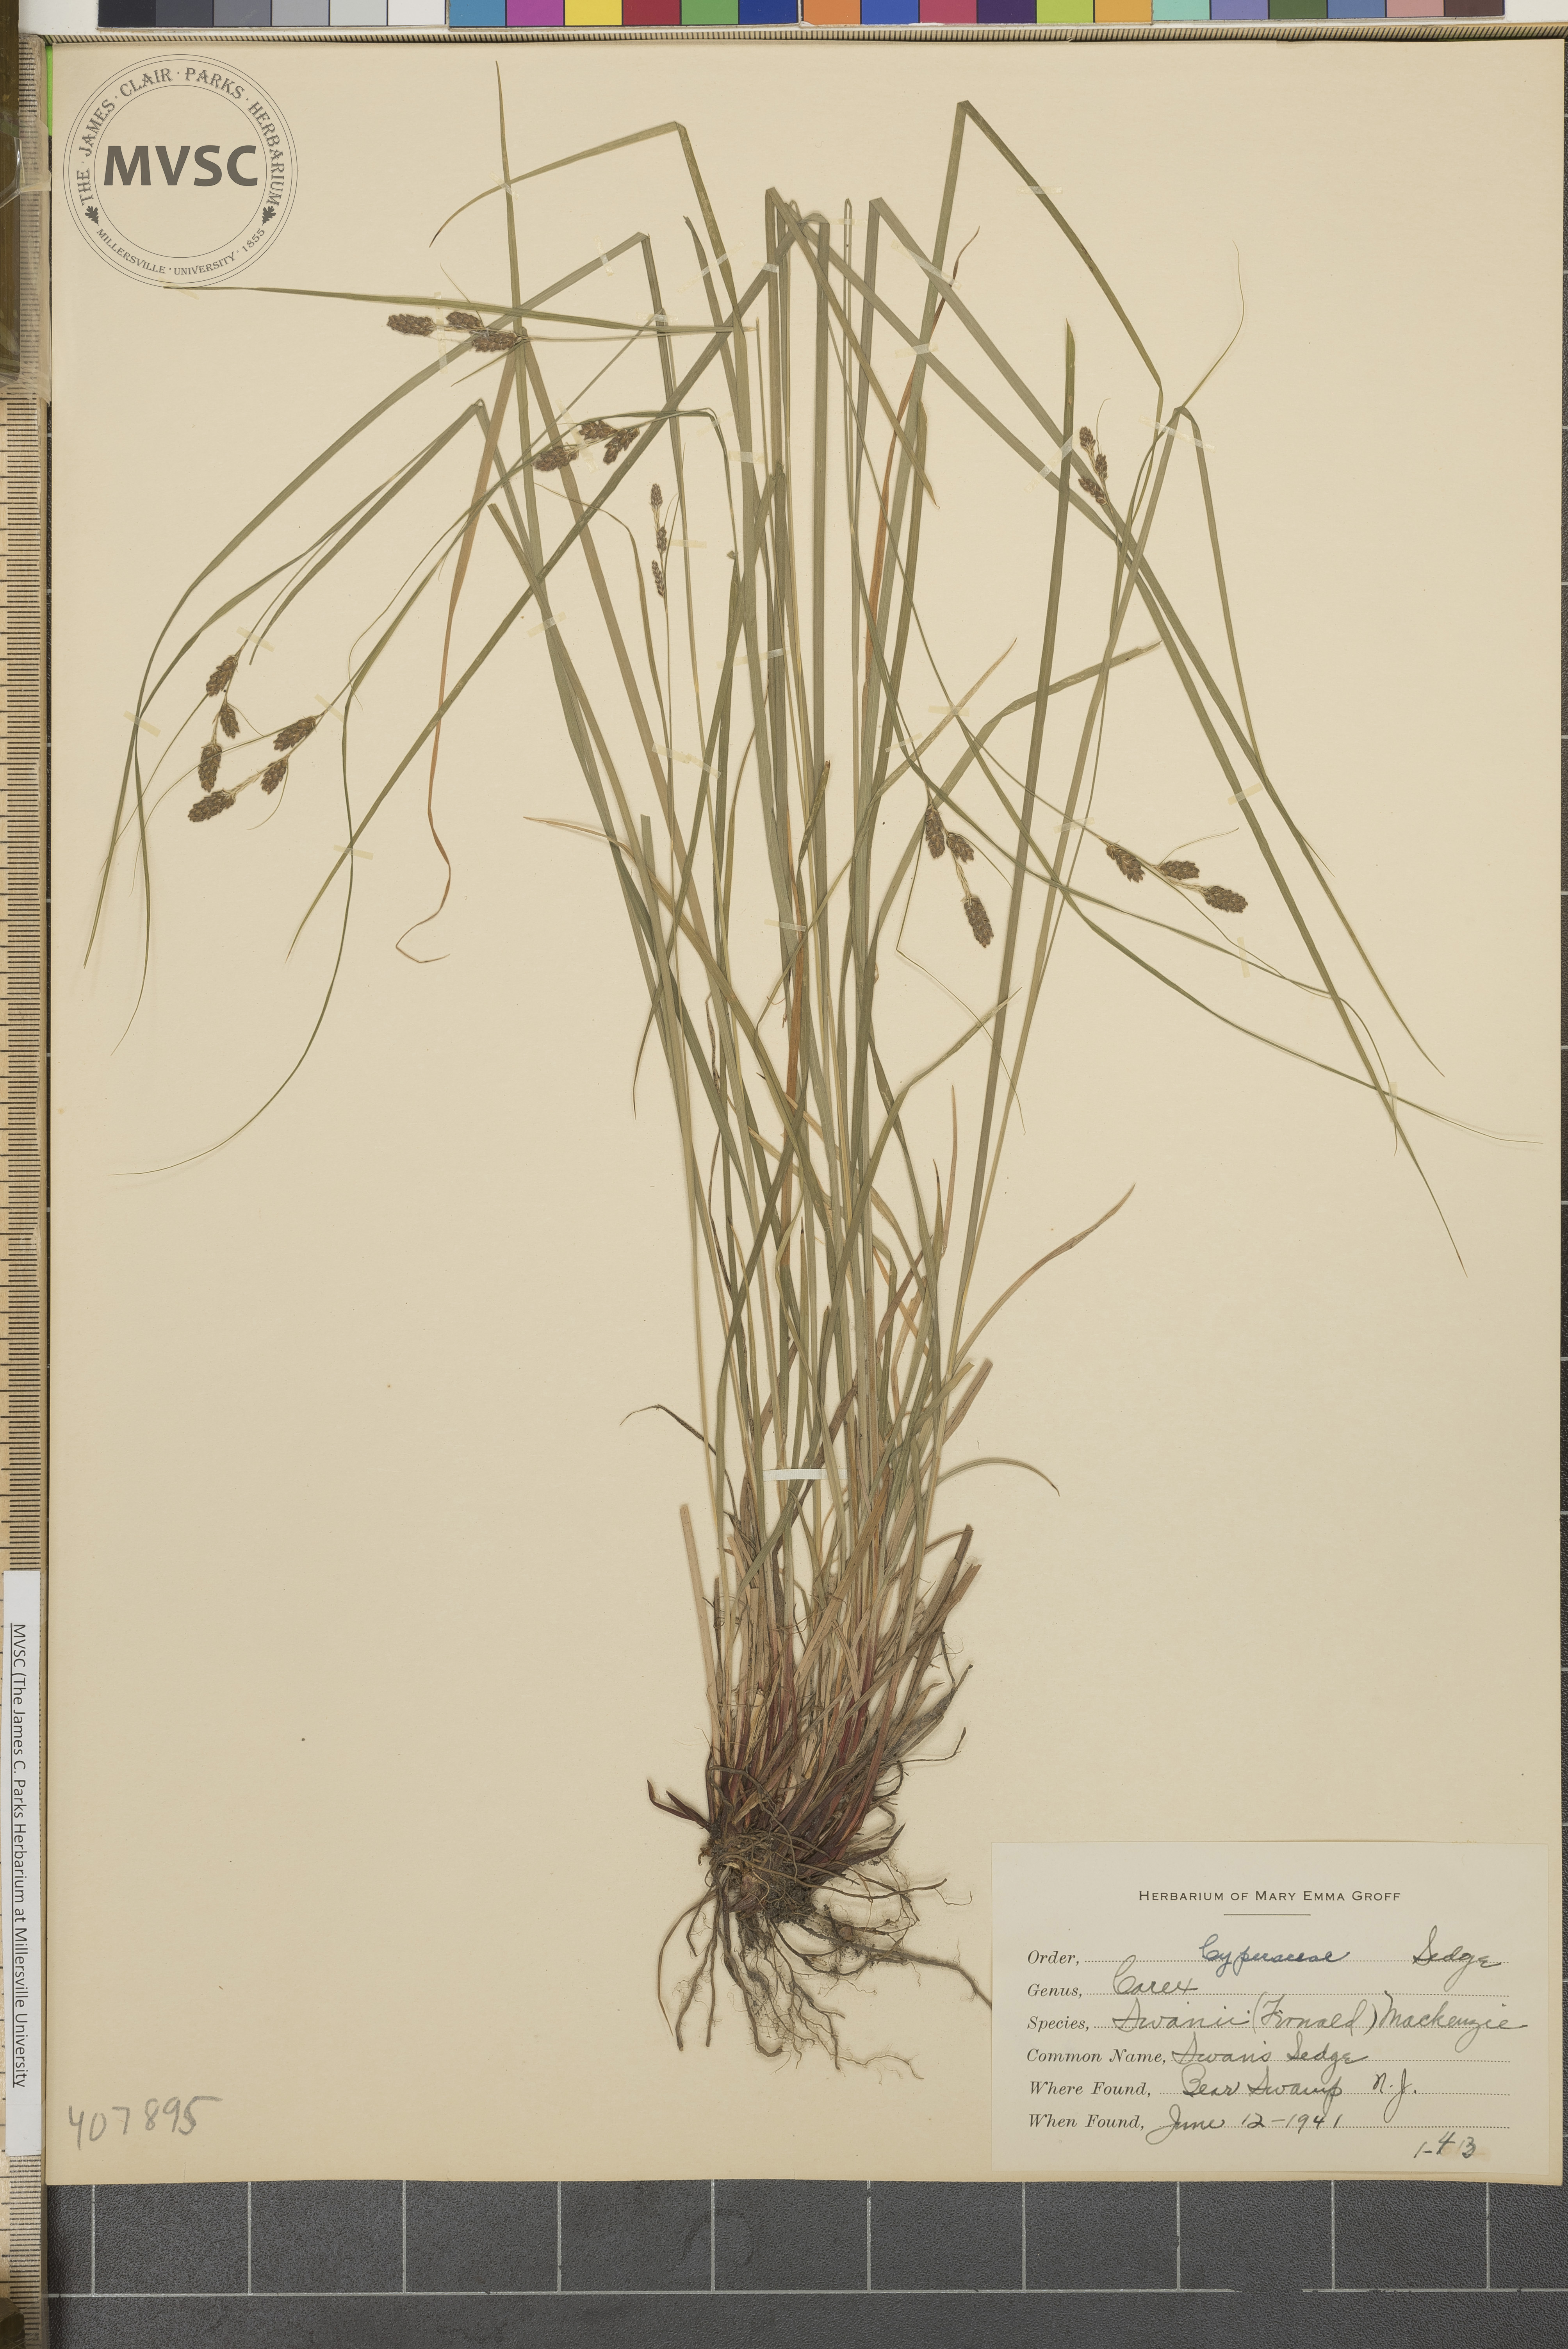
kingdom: Plantae
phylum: Tracheophyta
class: Liliopsida
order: Poales
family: Cyperaceae
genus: Carex
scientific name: Carex swanii
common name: Swan's Sedge
